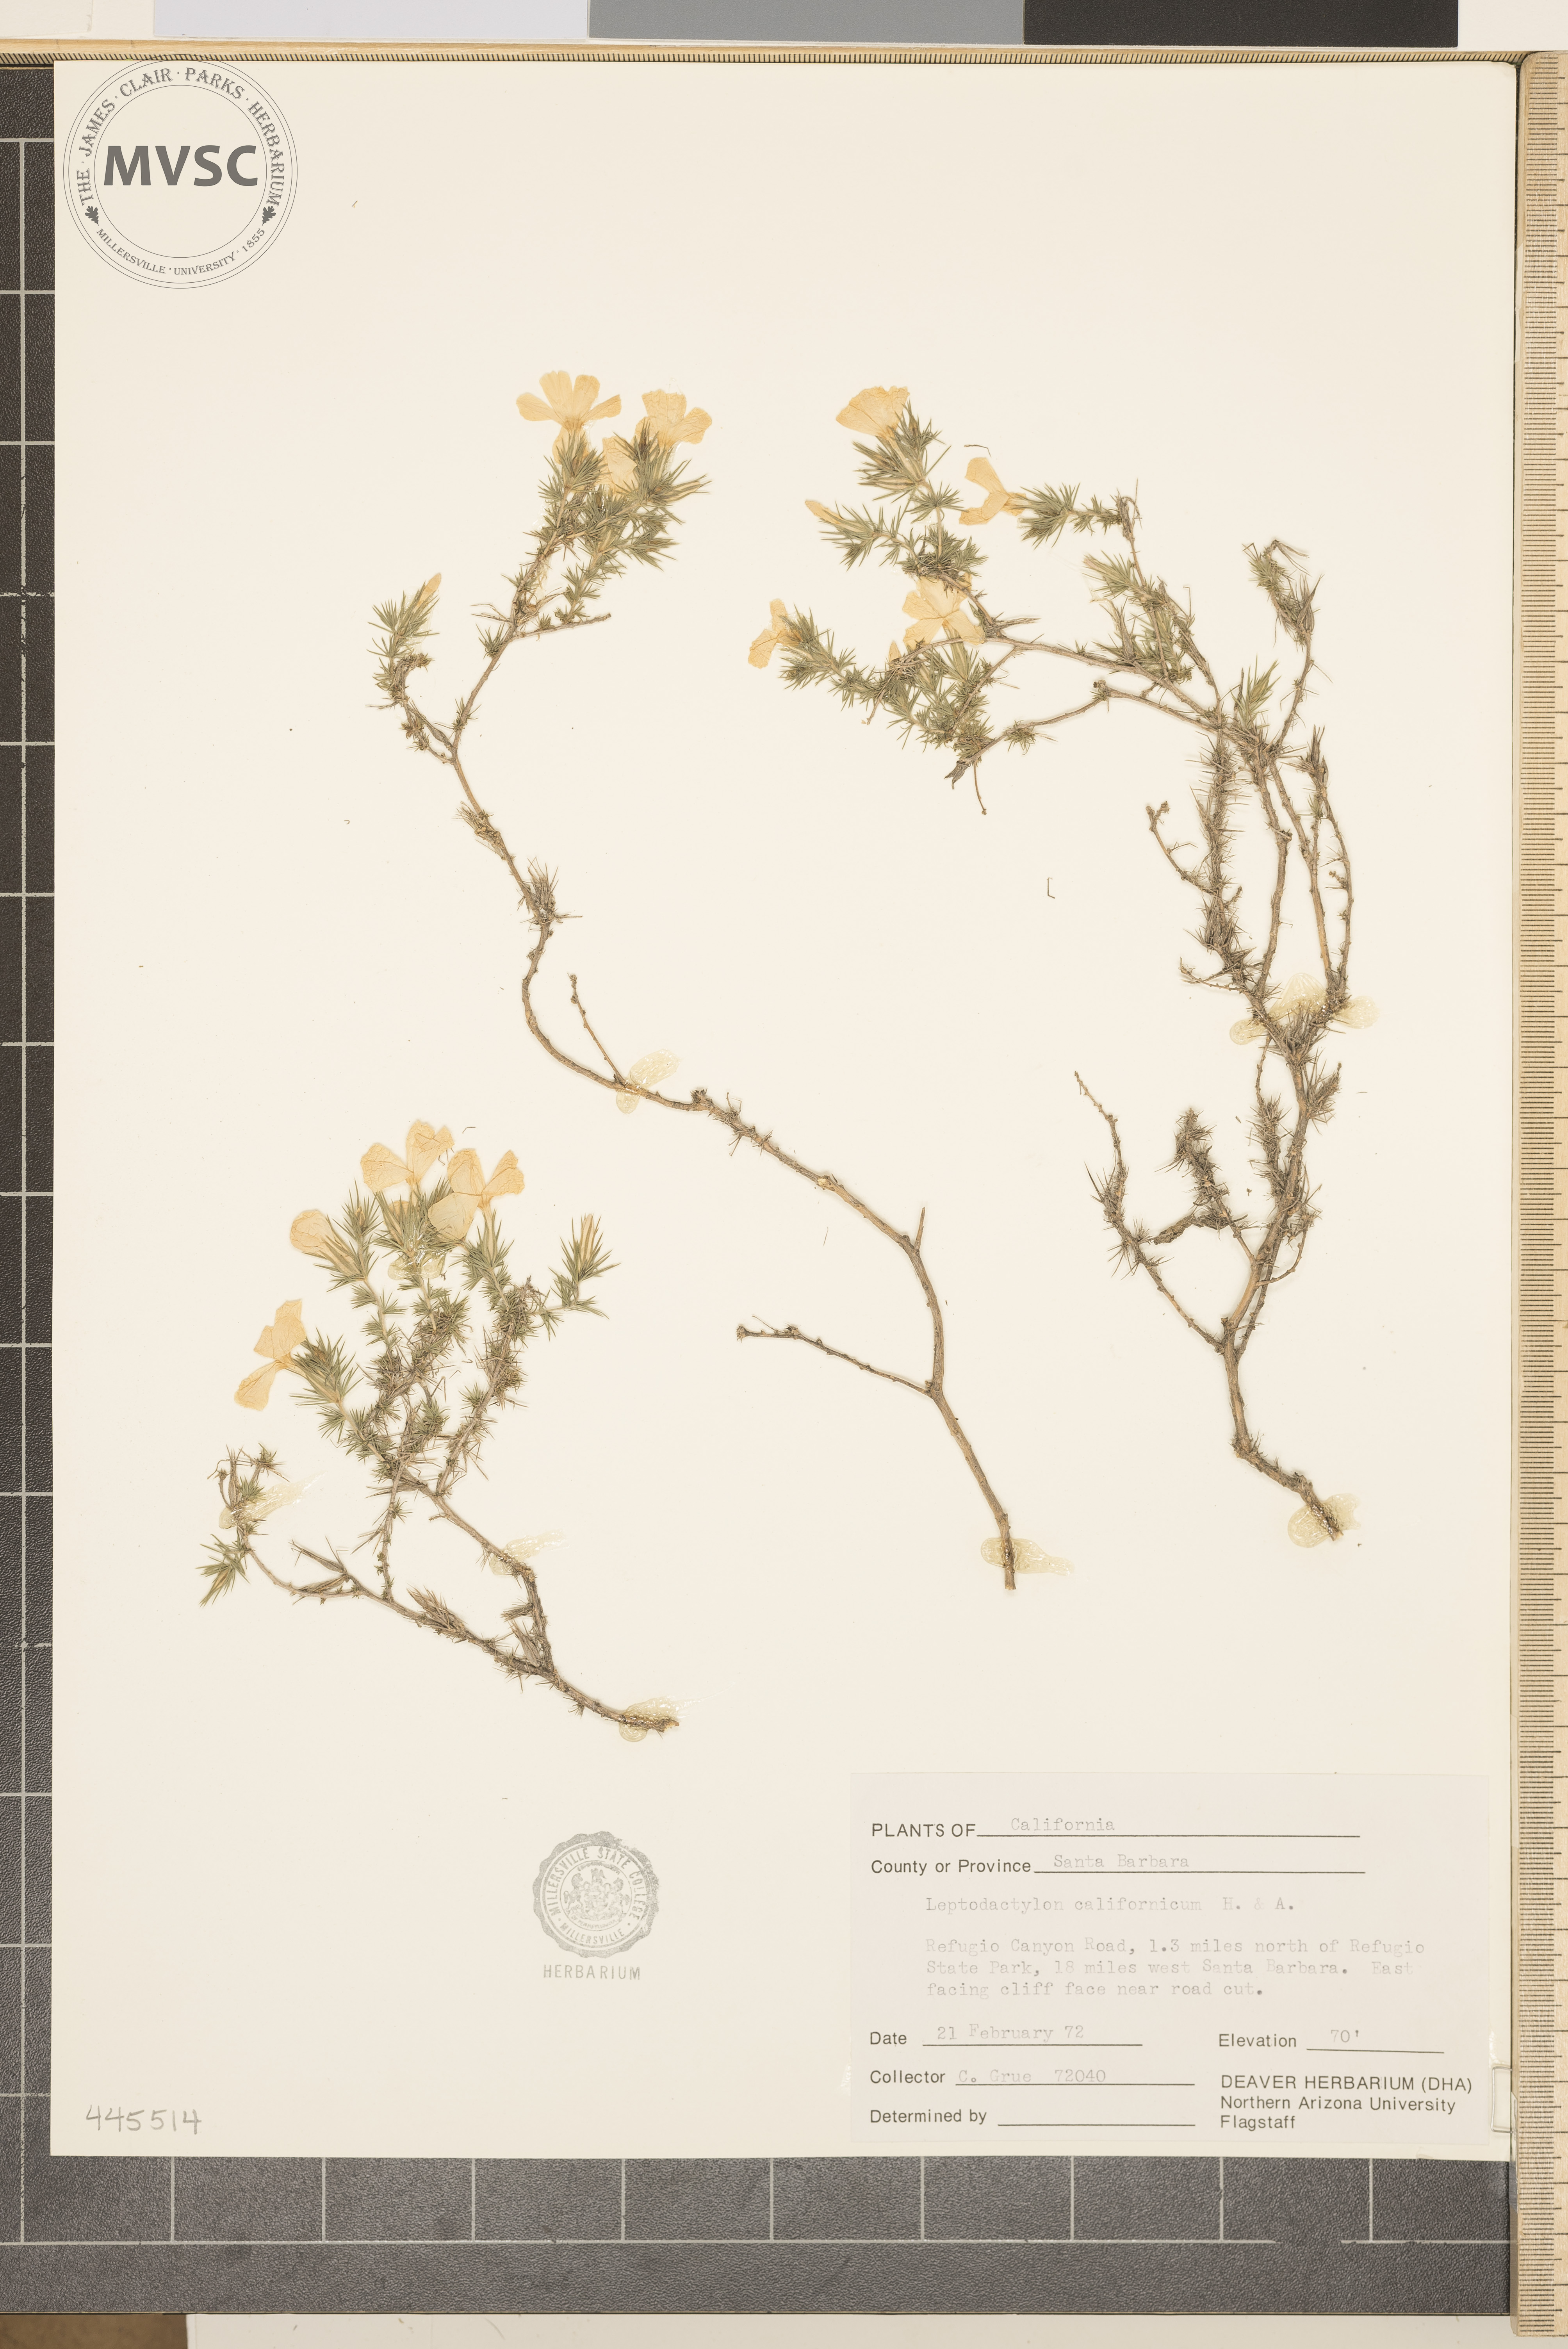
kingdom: Plantae
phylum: Tracheophyta
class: Magnoliopsida
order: Ericales
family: Polemoniaceae
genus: Linanthus
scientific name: Linanthus californicus
